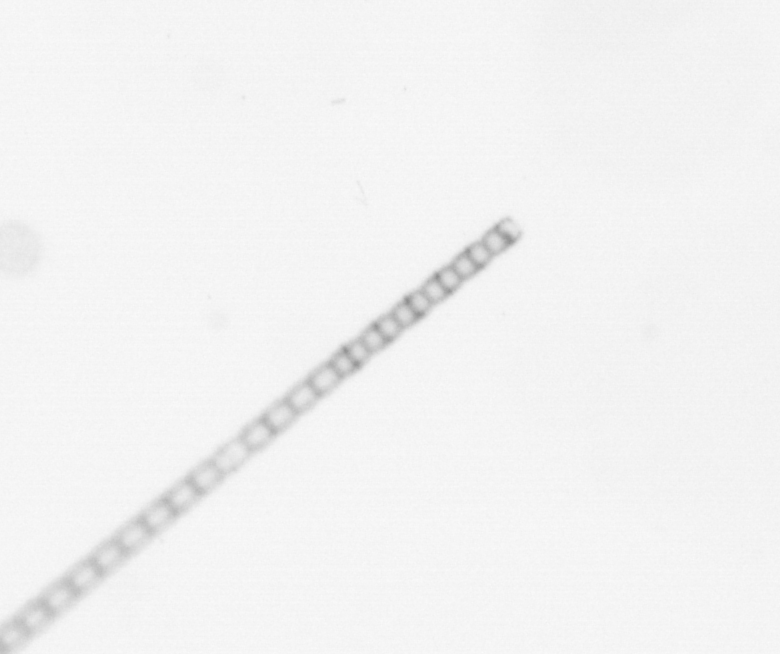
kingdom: Chromista
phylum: Ochrophyta
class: Bacillariophyceae
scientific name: Bacillariophyceae
